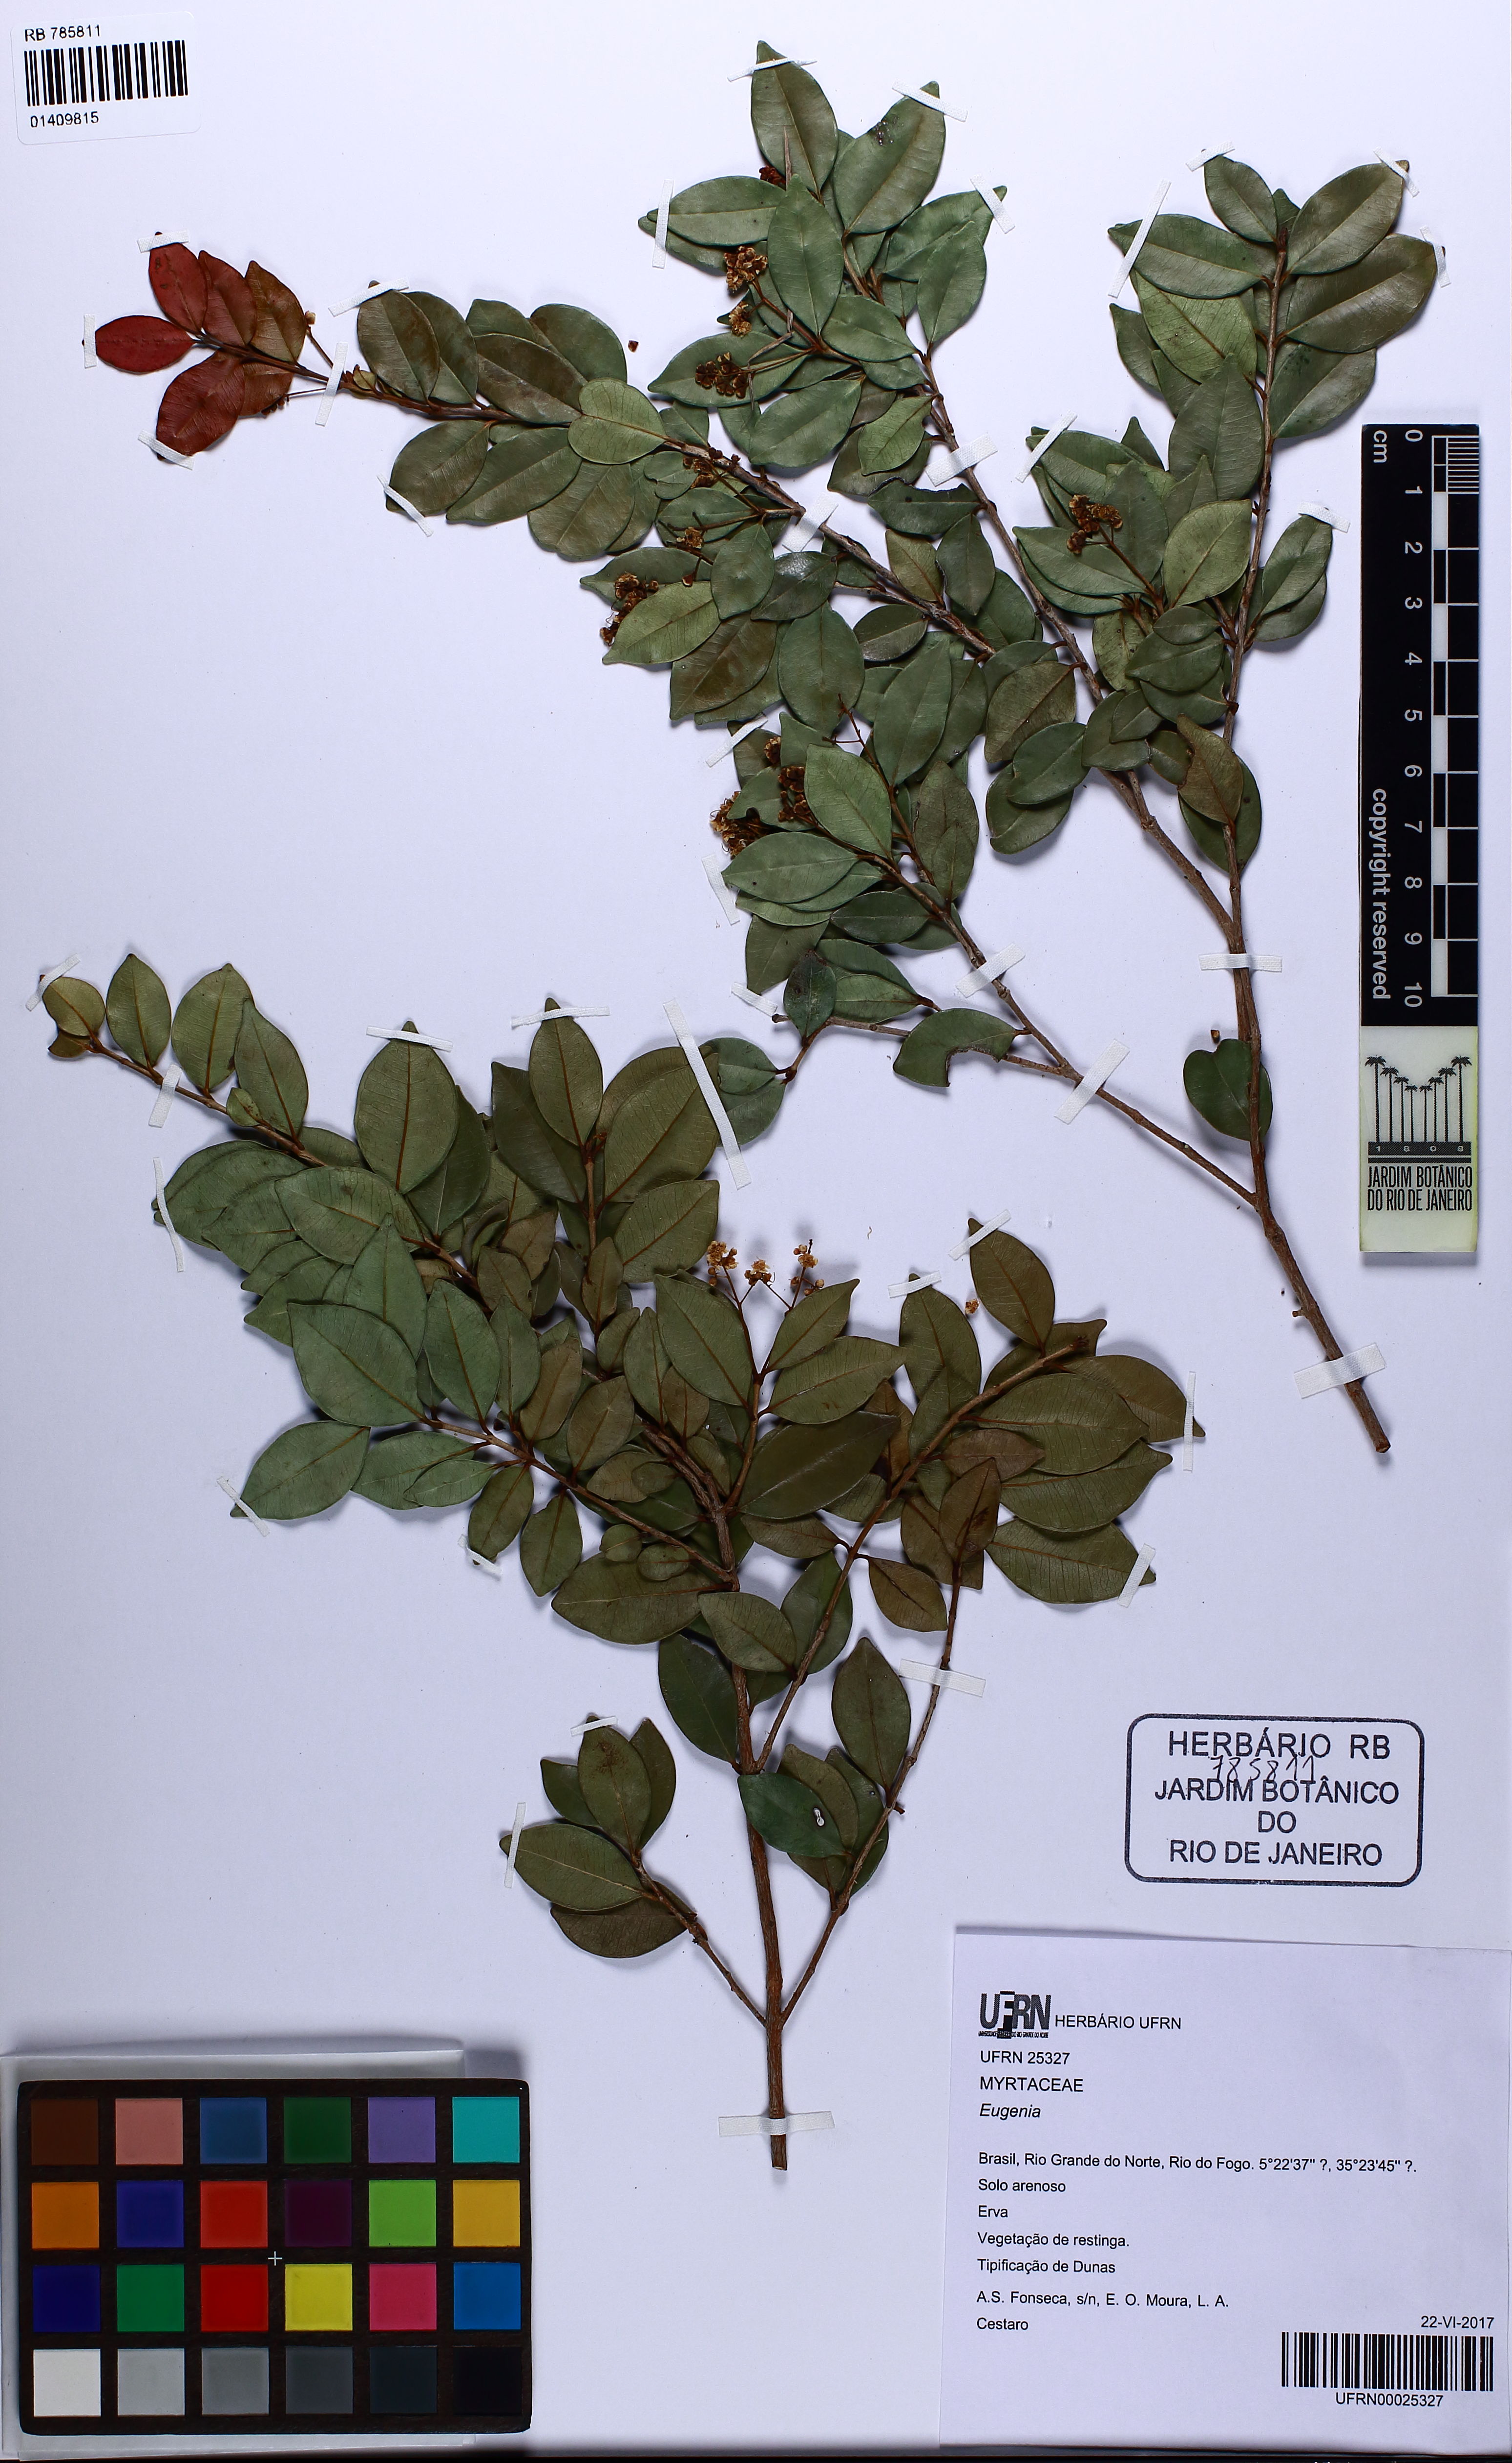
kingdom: Plantae
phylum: Tracheophyta
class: Magnoliopsida
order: Myrtales
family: Myrtaceae
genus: Myrcia
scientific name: Myrcia
